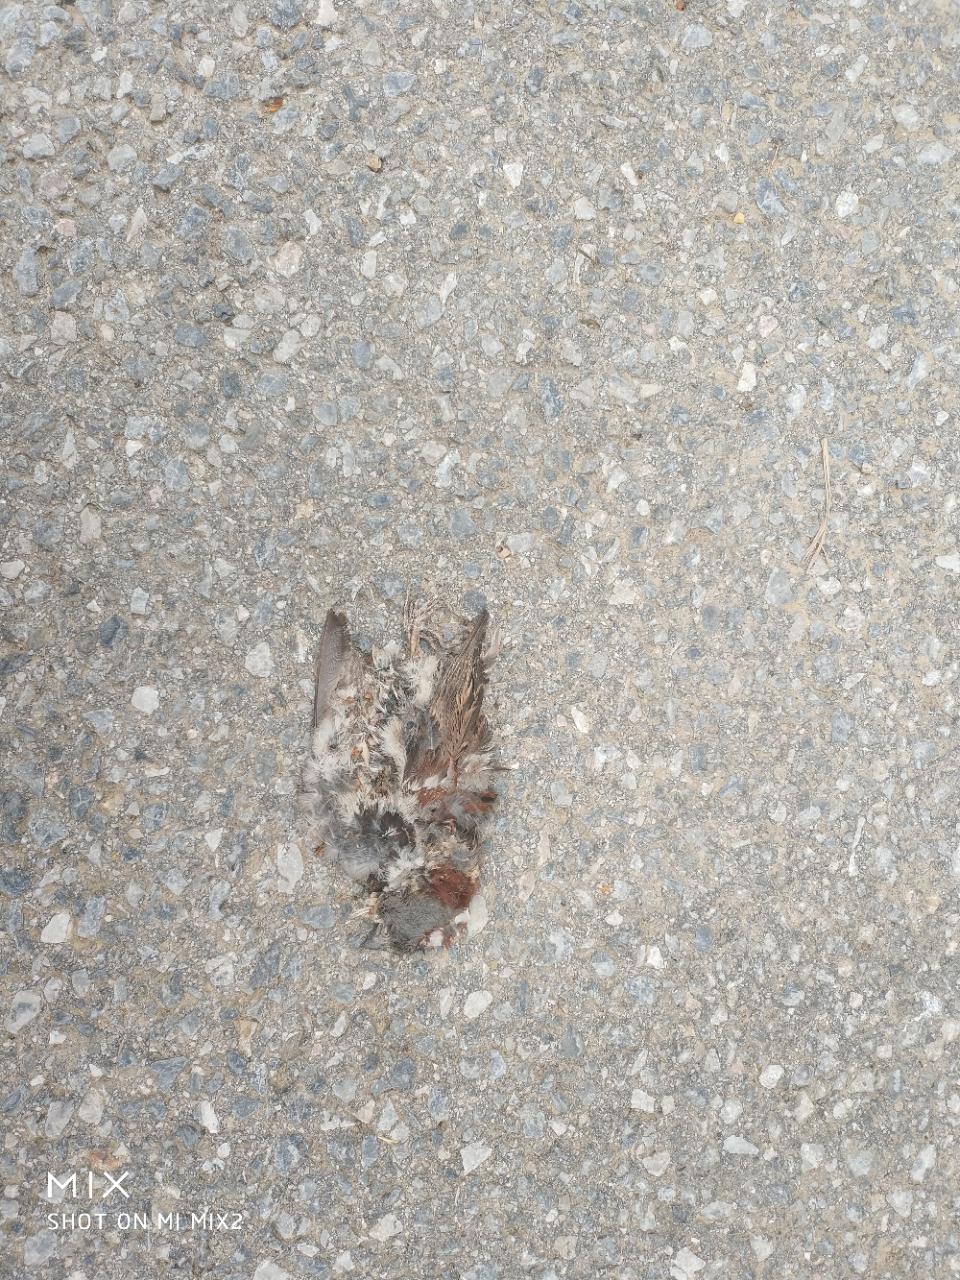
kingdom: Animalia
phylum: Chordata
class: Aves
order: Passeriformes
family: Passeridae
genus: Passer
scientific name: Passer domesticus
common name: House sparrow
